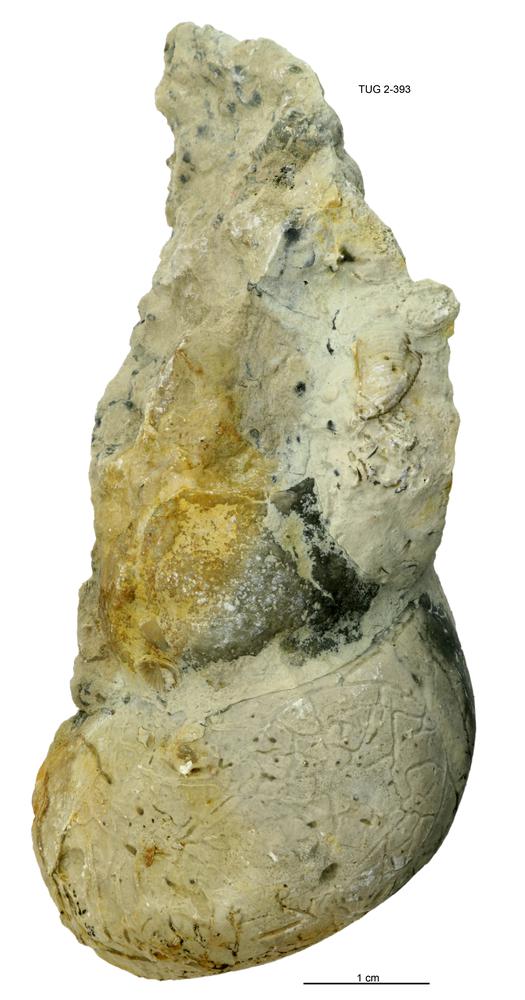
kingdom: Animalia
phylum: Mollusca
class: Gastropoda
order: Pleurotomariida
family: Murchisoniidae
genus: Murchisonia
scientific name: Murchisonia insignis
